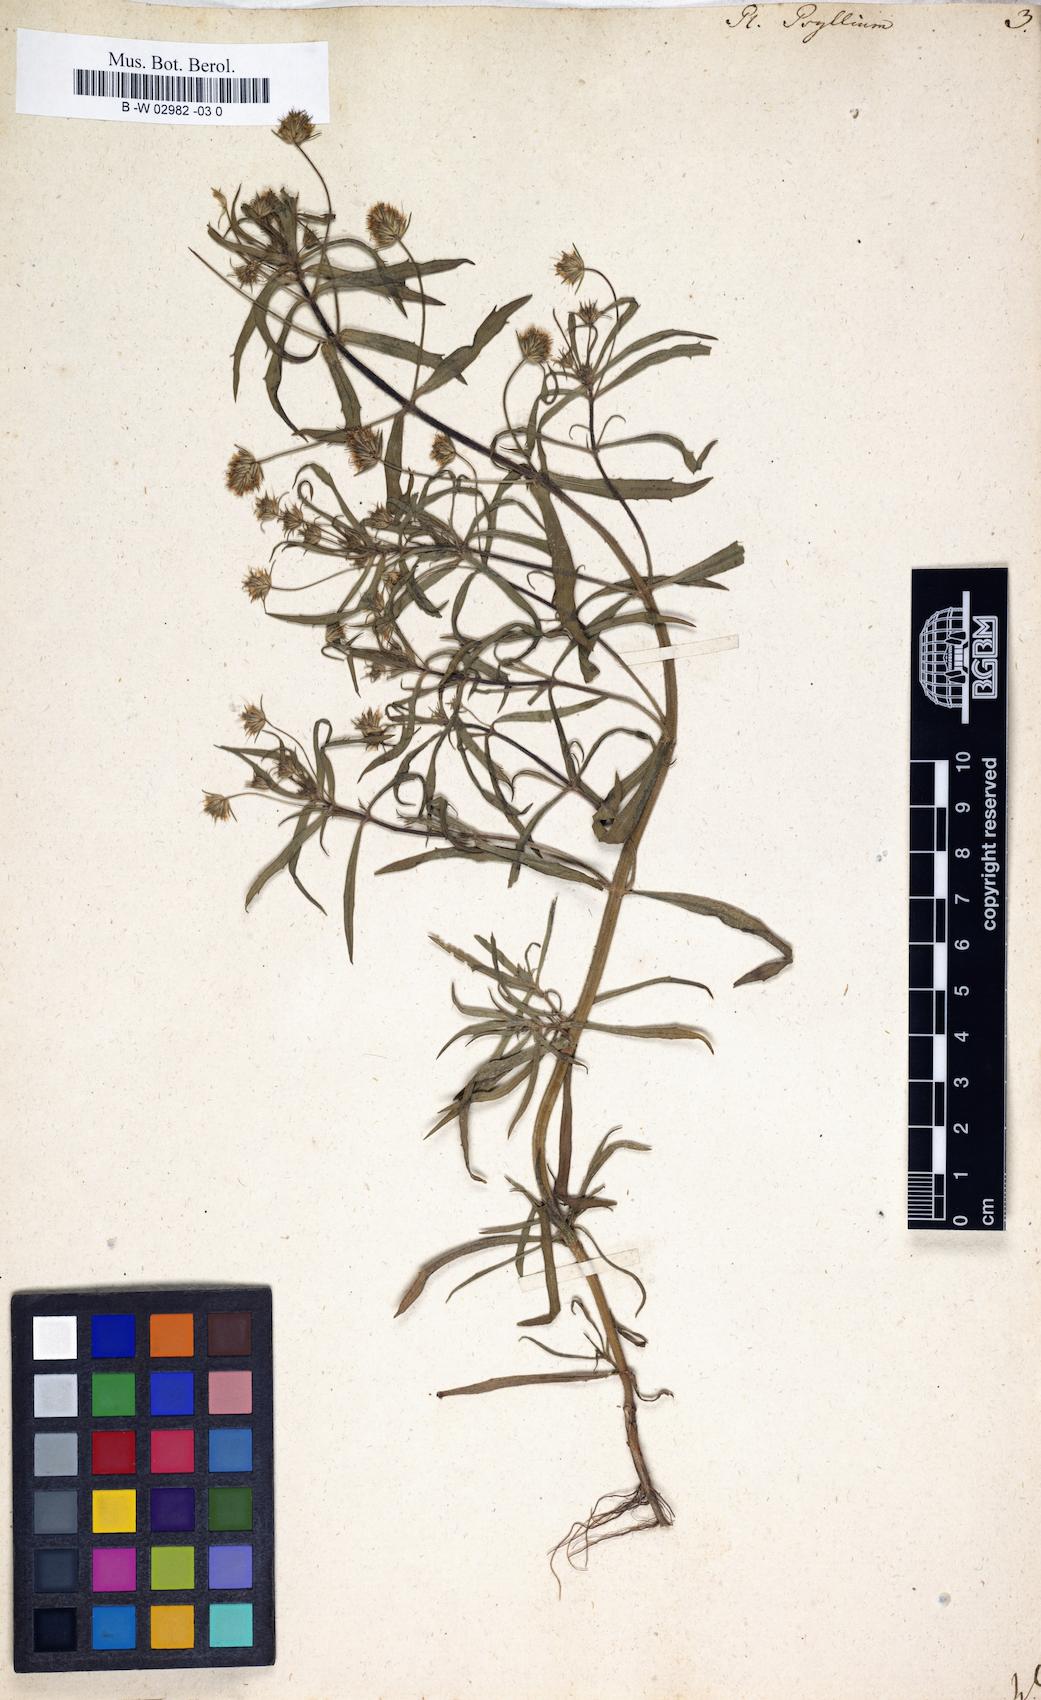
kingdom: Plantae
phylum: Tracheophyta
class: Magnoliopsida
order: Lamiales
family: Plantaginaceae
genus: Plantago
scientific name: Plantago psyllium
